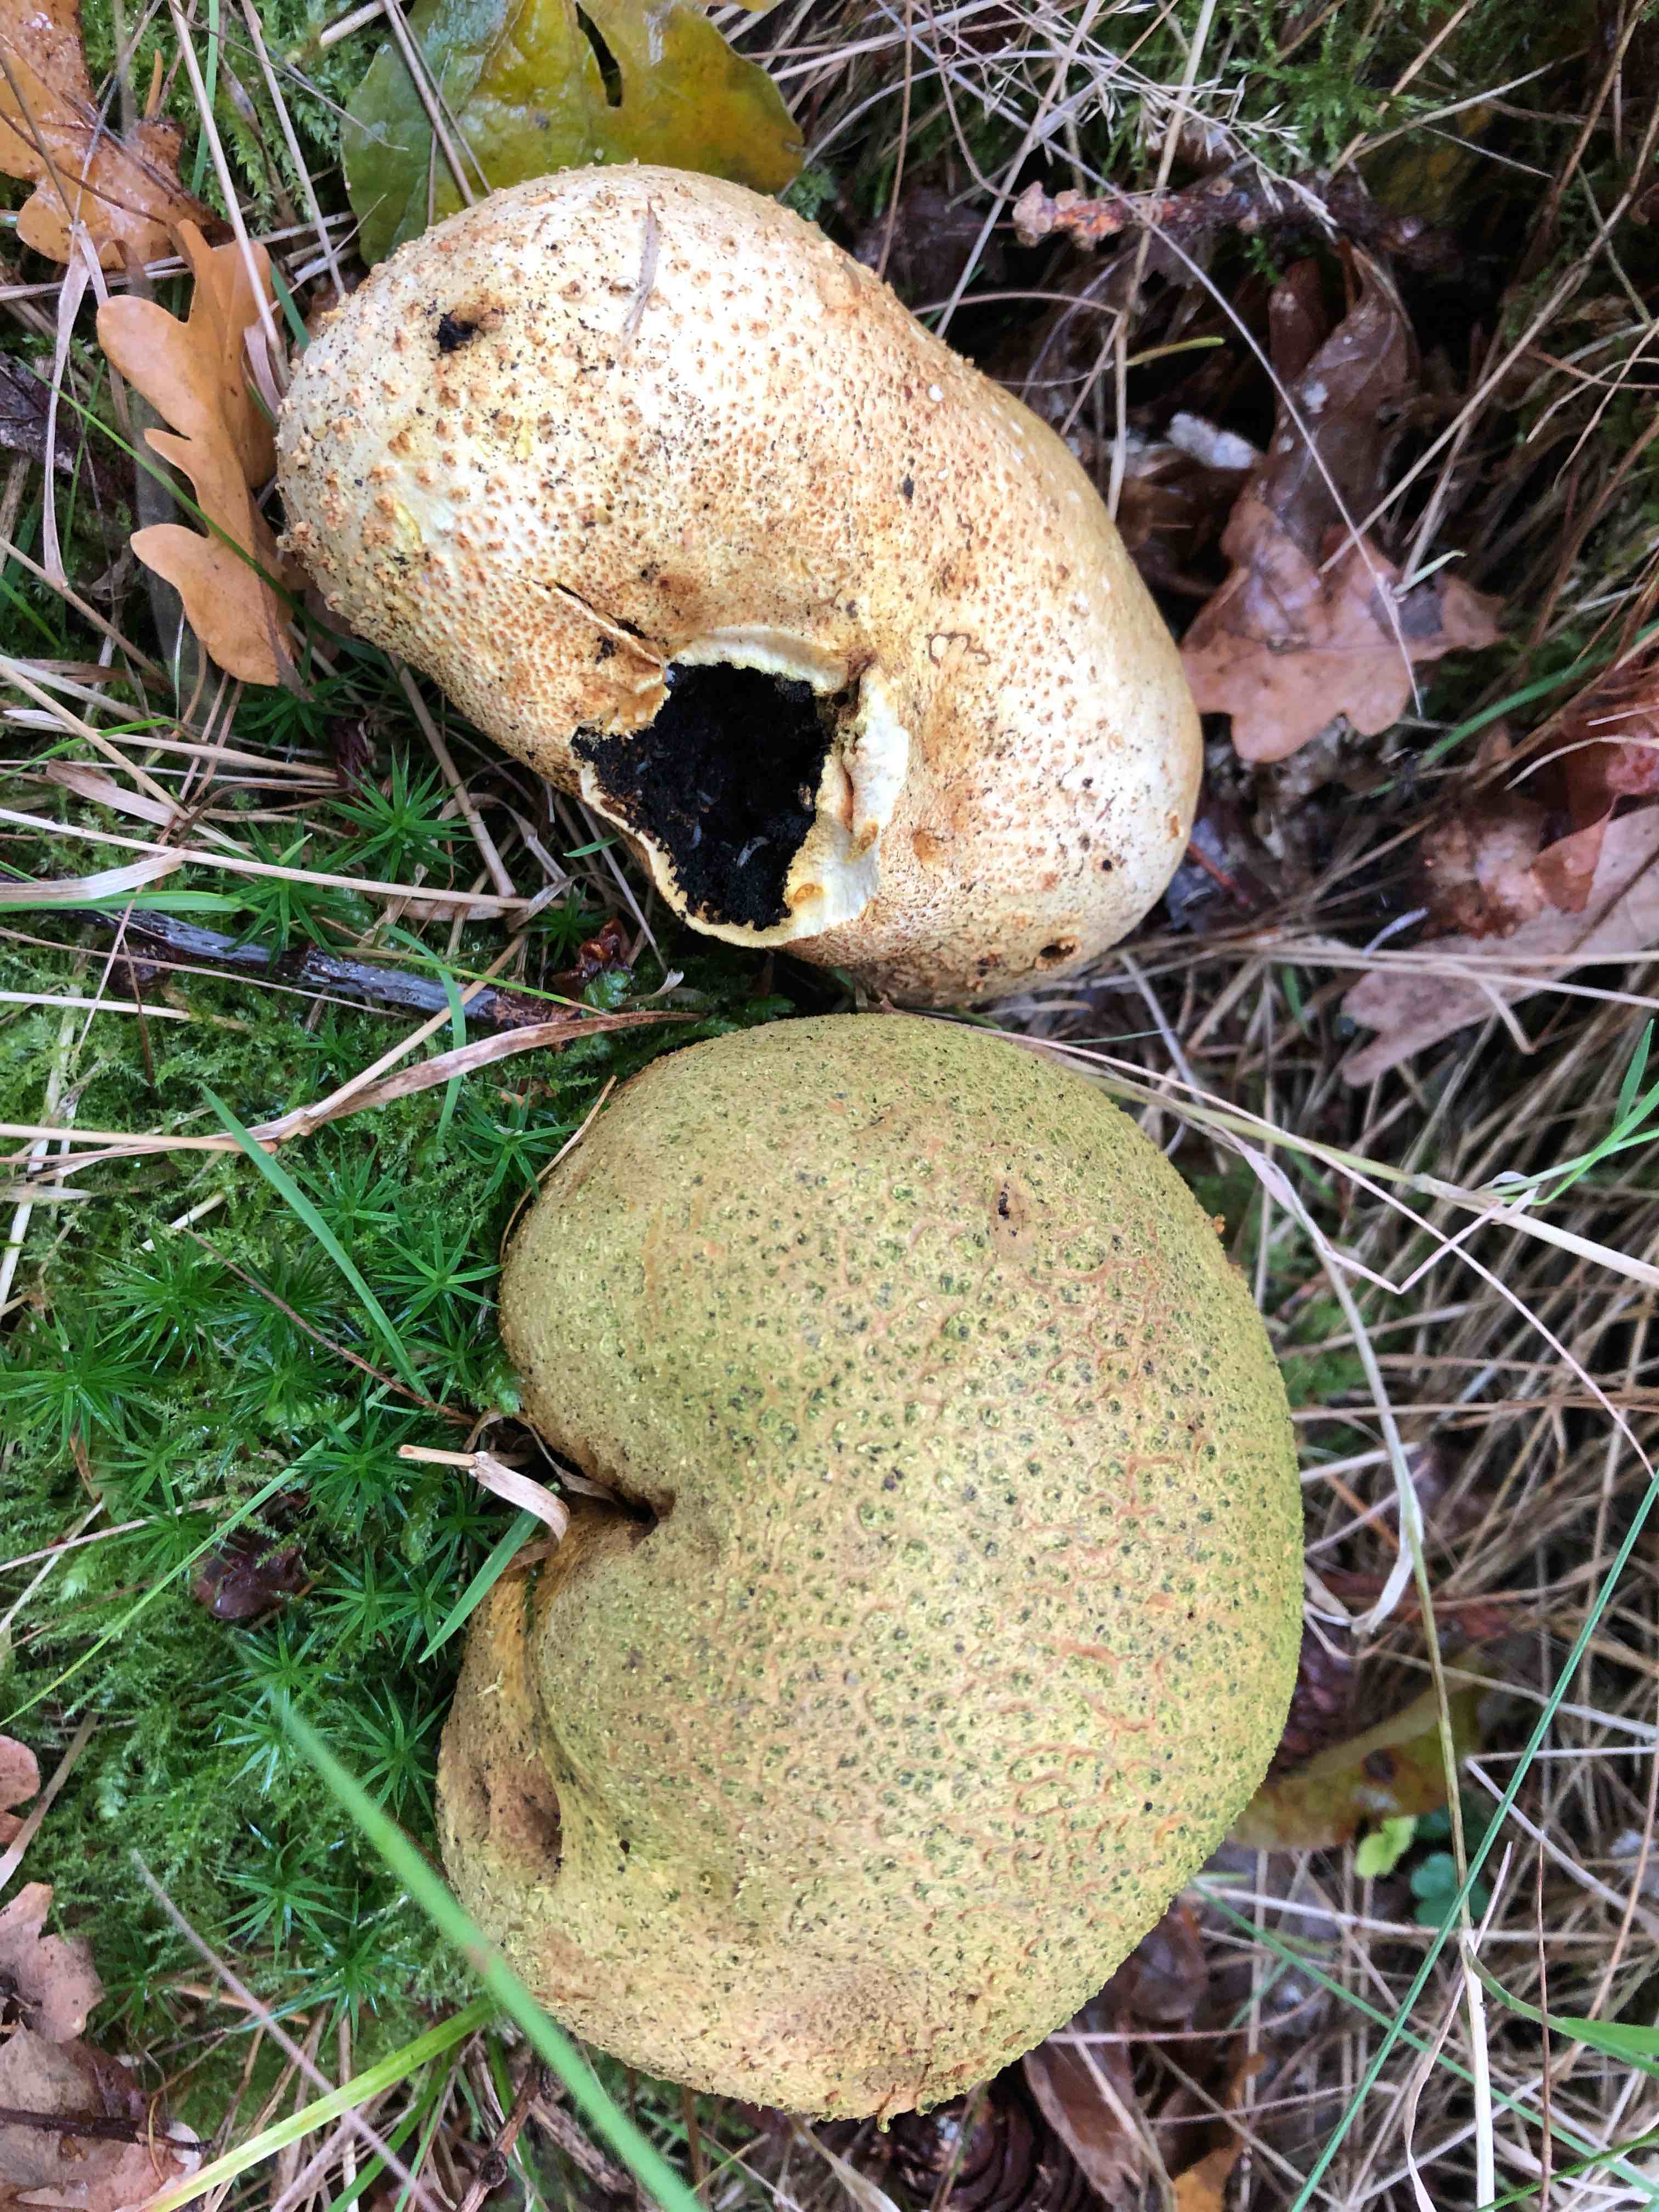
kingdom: Fungi
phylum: Basidiomycota
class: Agaricomycetes
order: Boletales
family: Sclerodermataceae
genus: Scleroderma
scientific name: Scleroderma citrinum
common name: almindelig bruskbold
